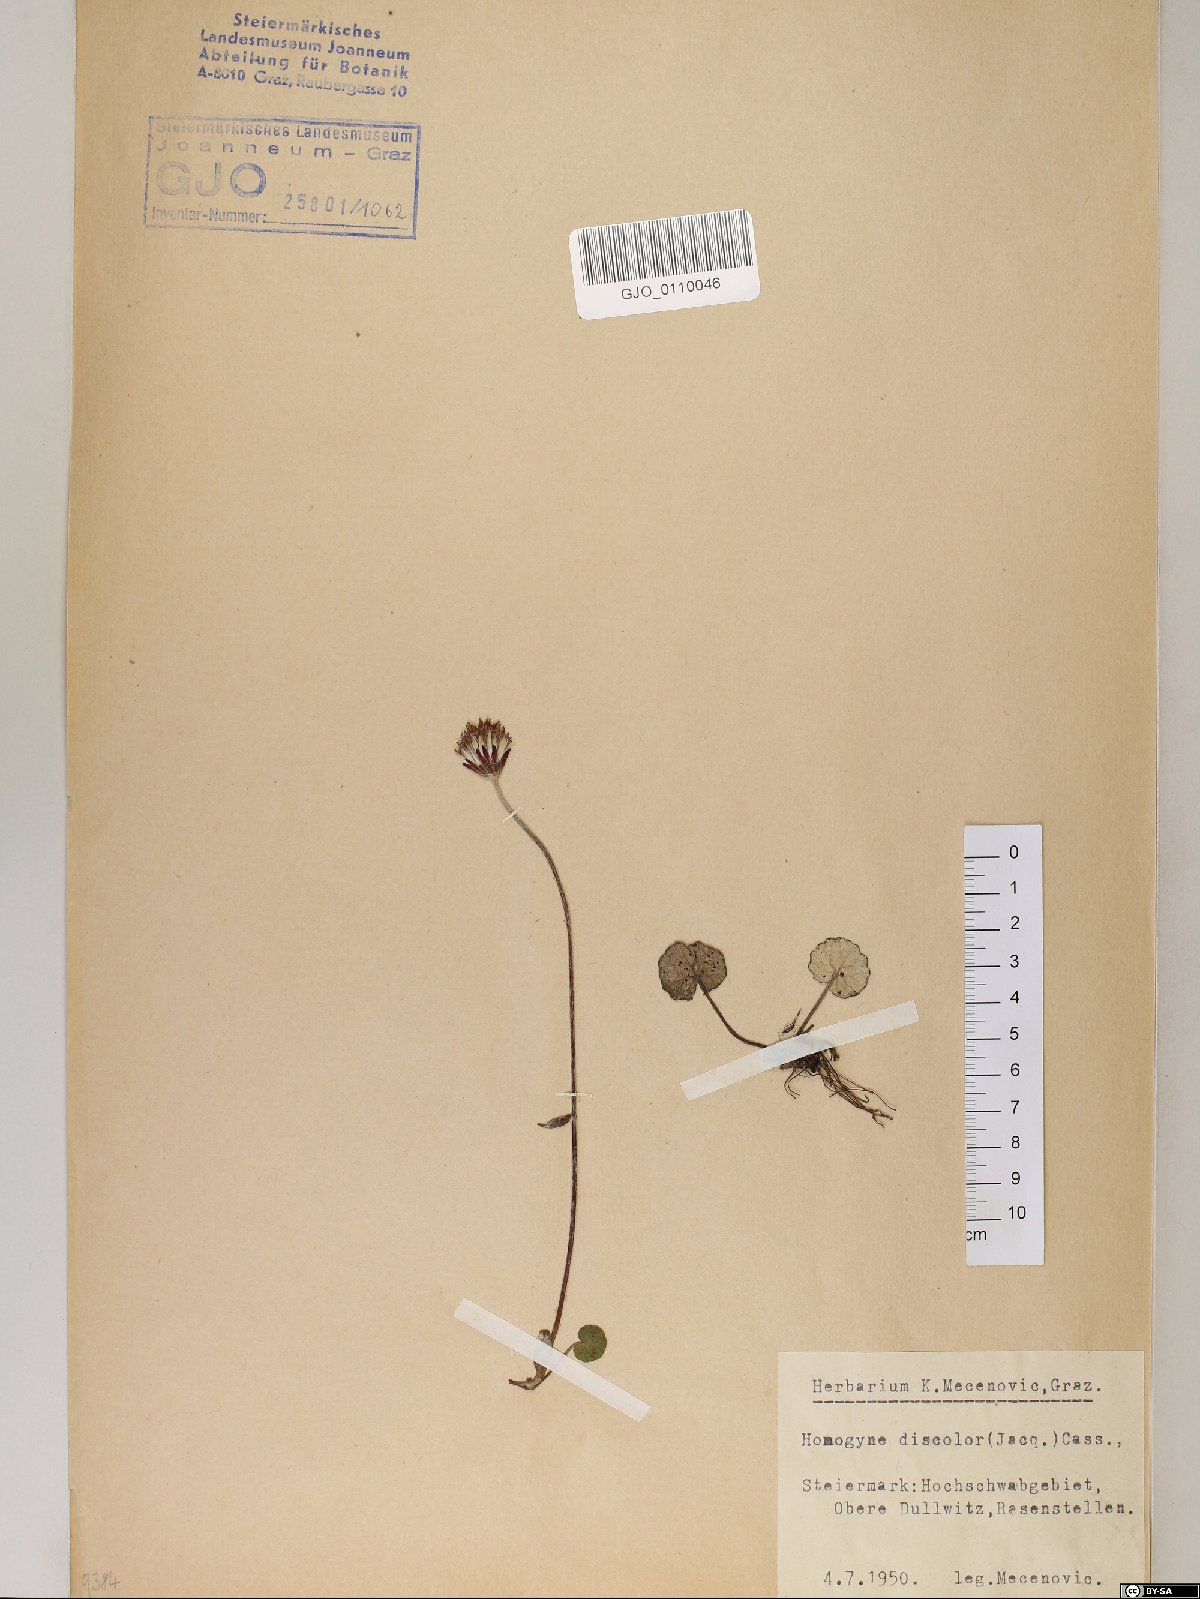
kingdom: Plantae
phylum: Tracheophyta
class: Magnoliopsida
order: Asterales
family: Asteraceae
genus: Homogyne
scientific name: Homogyne discolor
